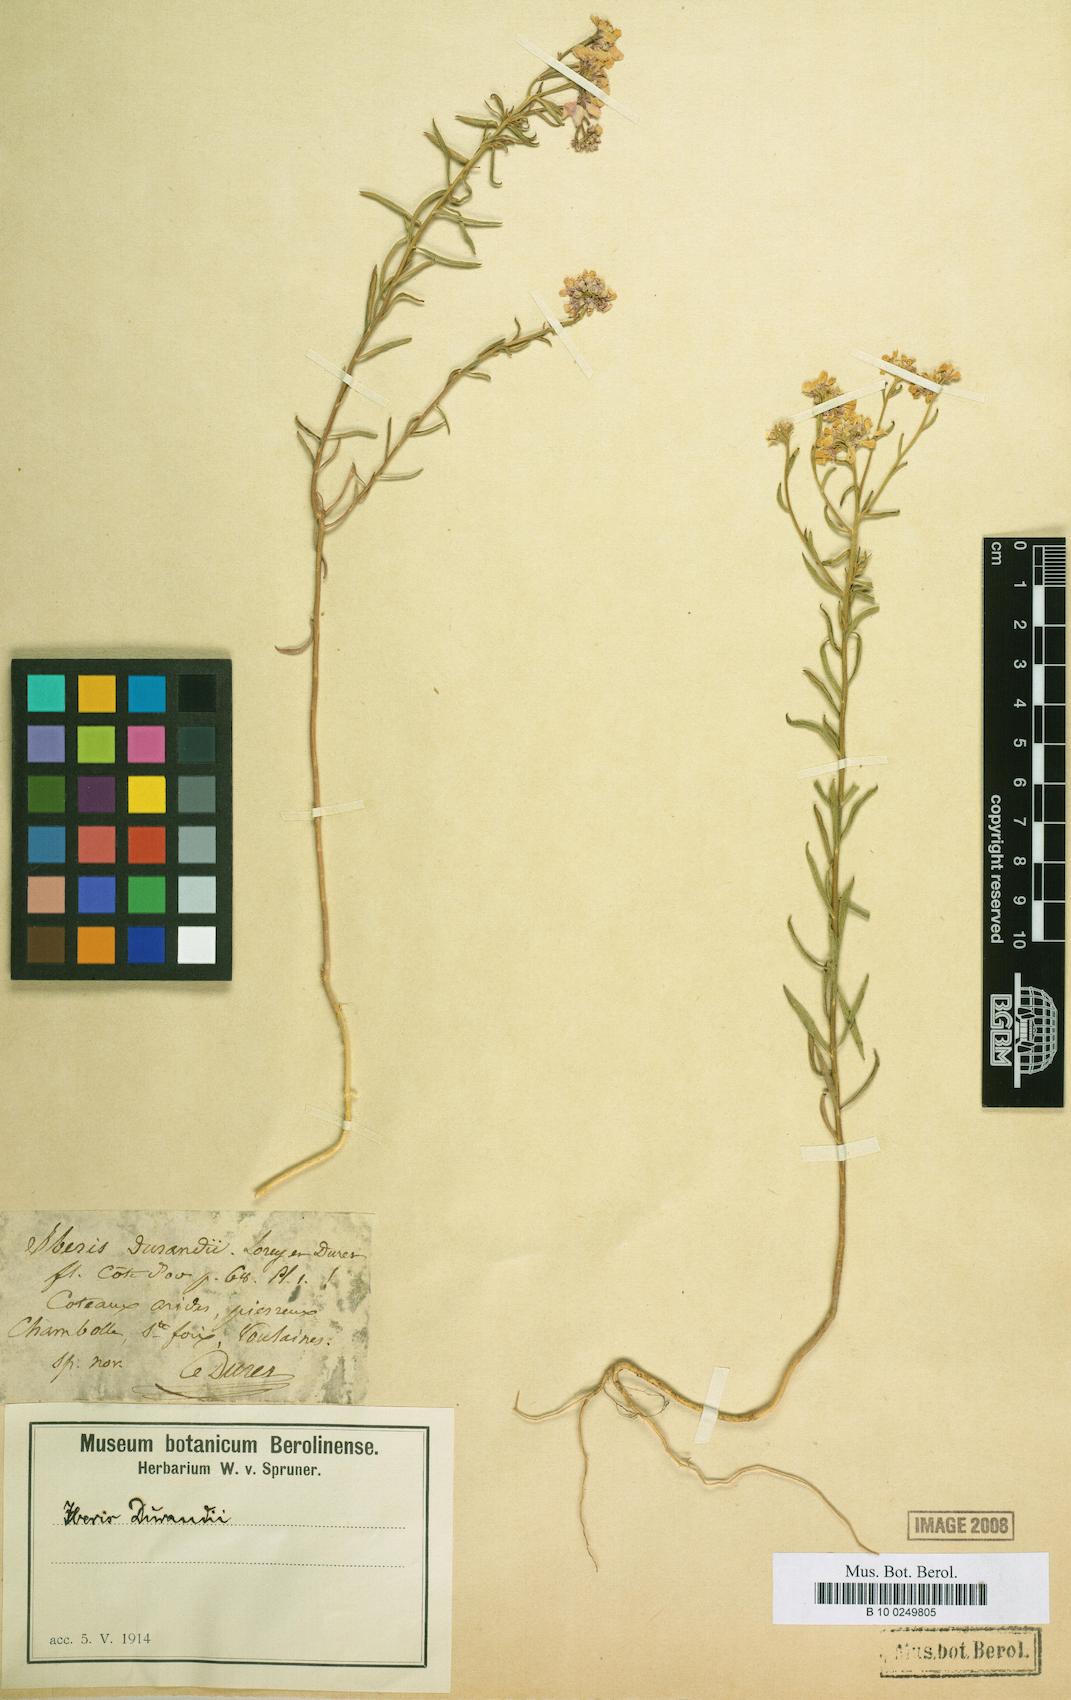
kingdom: Plantae
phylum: Tracheophyta
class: Magnoliopsida
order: Brassicales
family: Brassicaceae
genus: Iberis
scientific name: Iberis linifolia
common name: Candytuft
